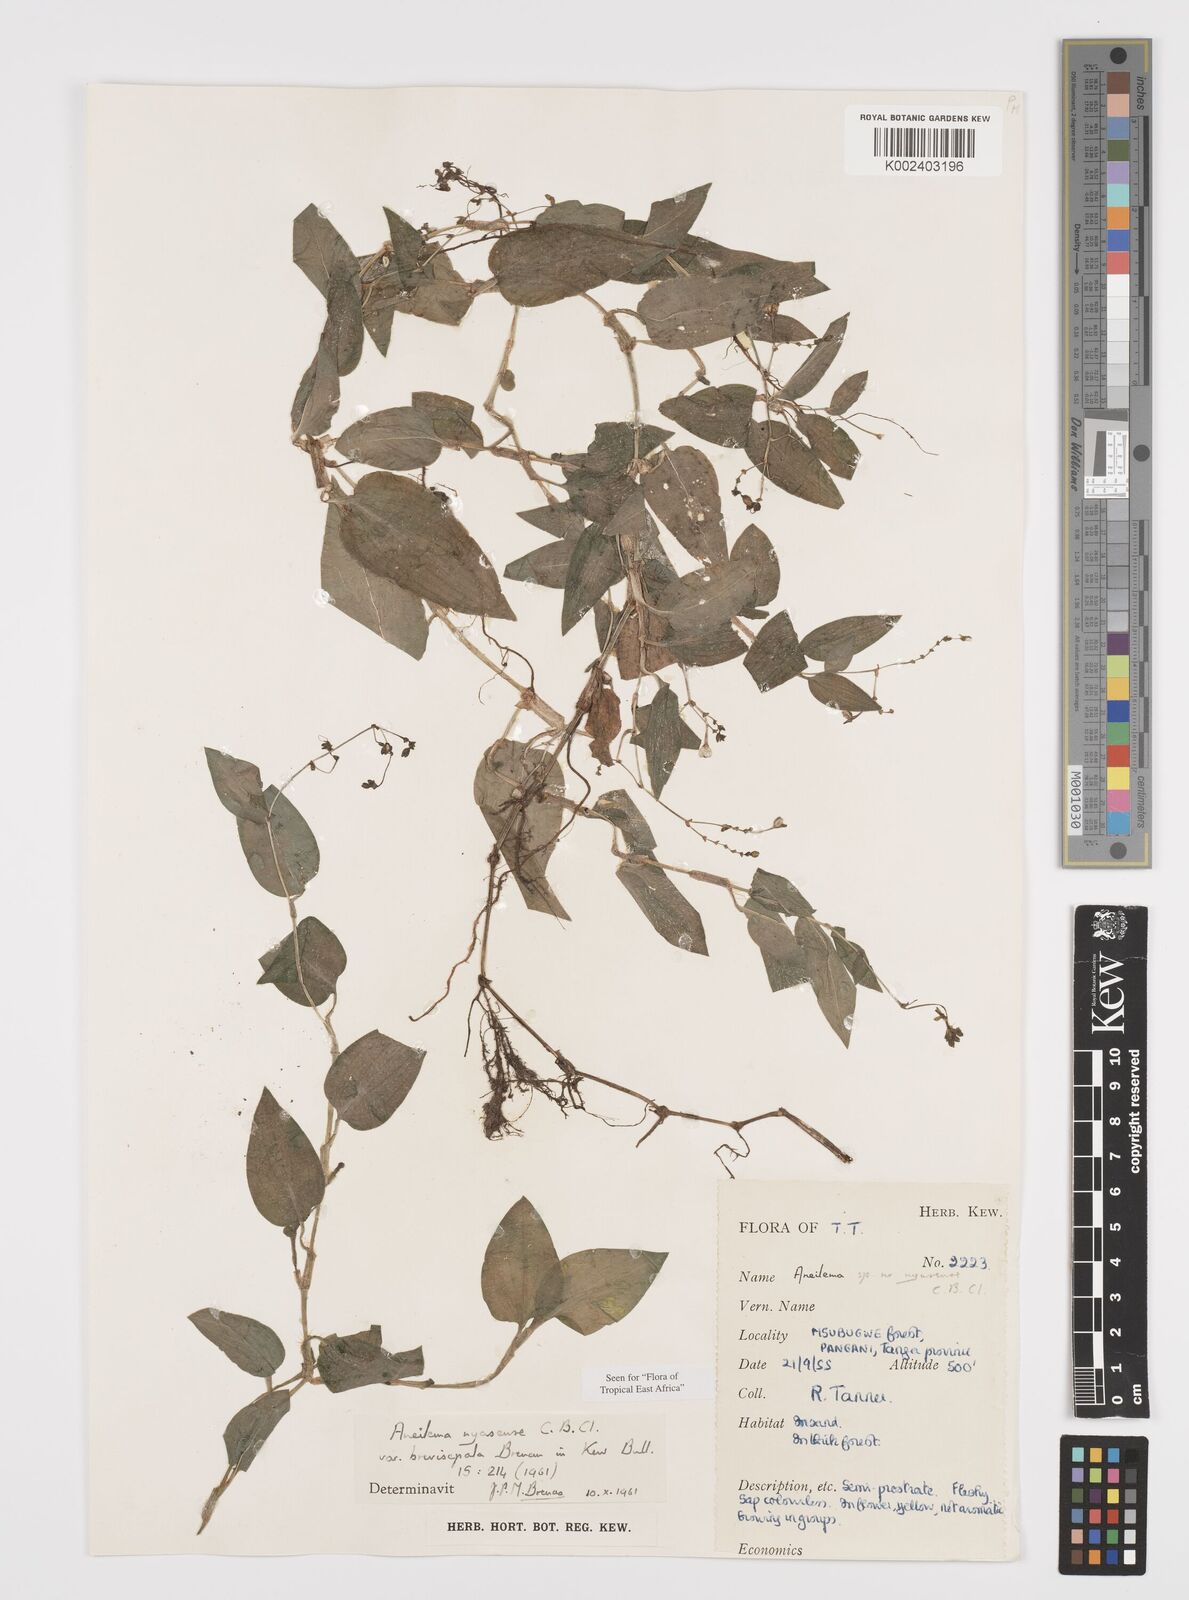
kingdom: Plantae
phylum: Tracheophyta
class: Liliopsida
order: Commelinales
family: Commelinaceae
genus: Aneilema
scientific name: Aneilema nyasense
